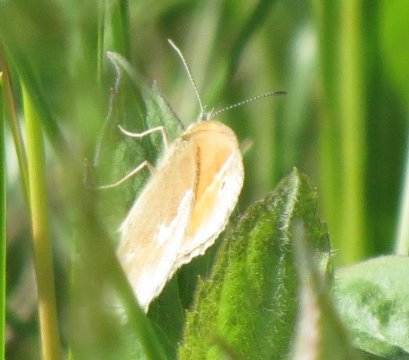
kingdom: Animalia
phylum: Arthropoda
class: Insecta
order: Lepidoptera
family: Nymphalidae
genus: Coenonympha
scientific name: Coenonympha tullia
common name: Large Heath
